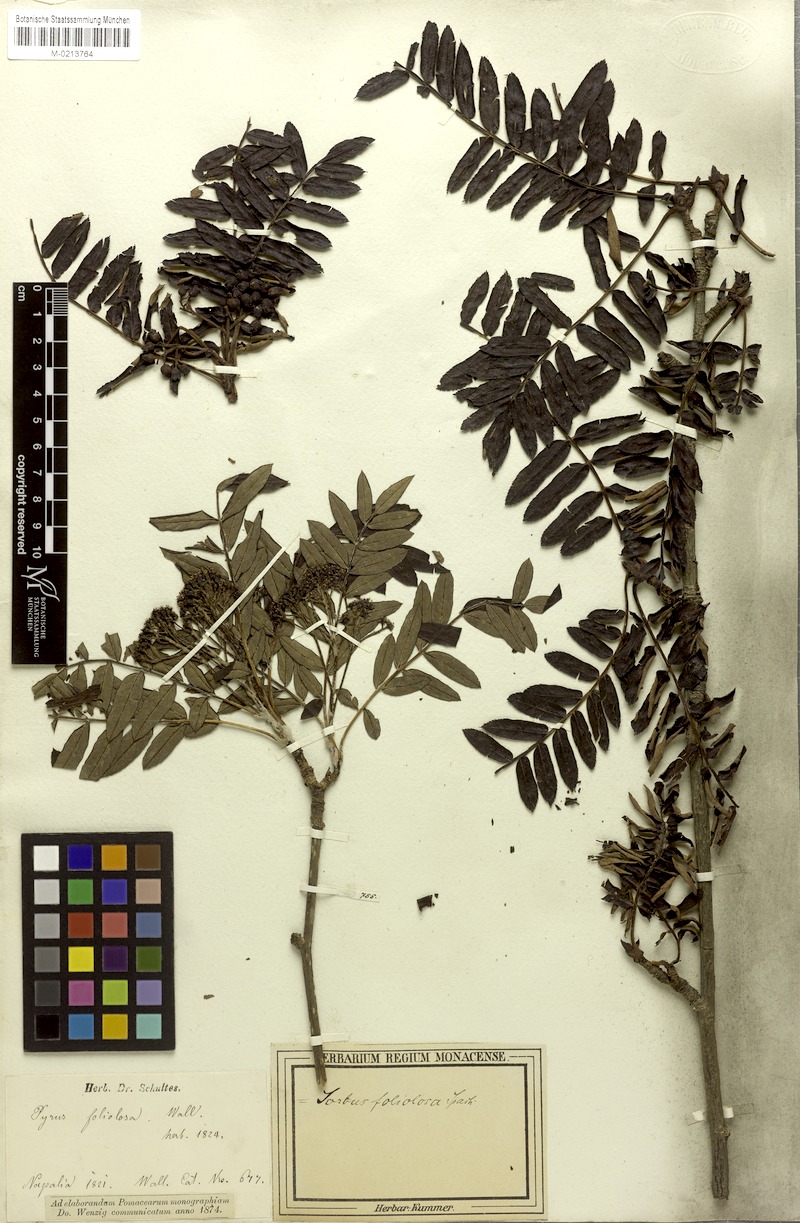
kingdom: Plantae
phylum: Tracheophyta
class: Magnoliopsida
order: Rosales
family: Rosaceae
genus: Sorbus
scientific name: Sorbus foliolosa
